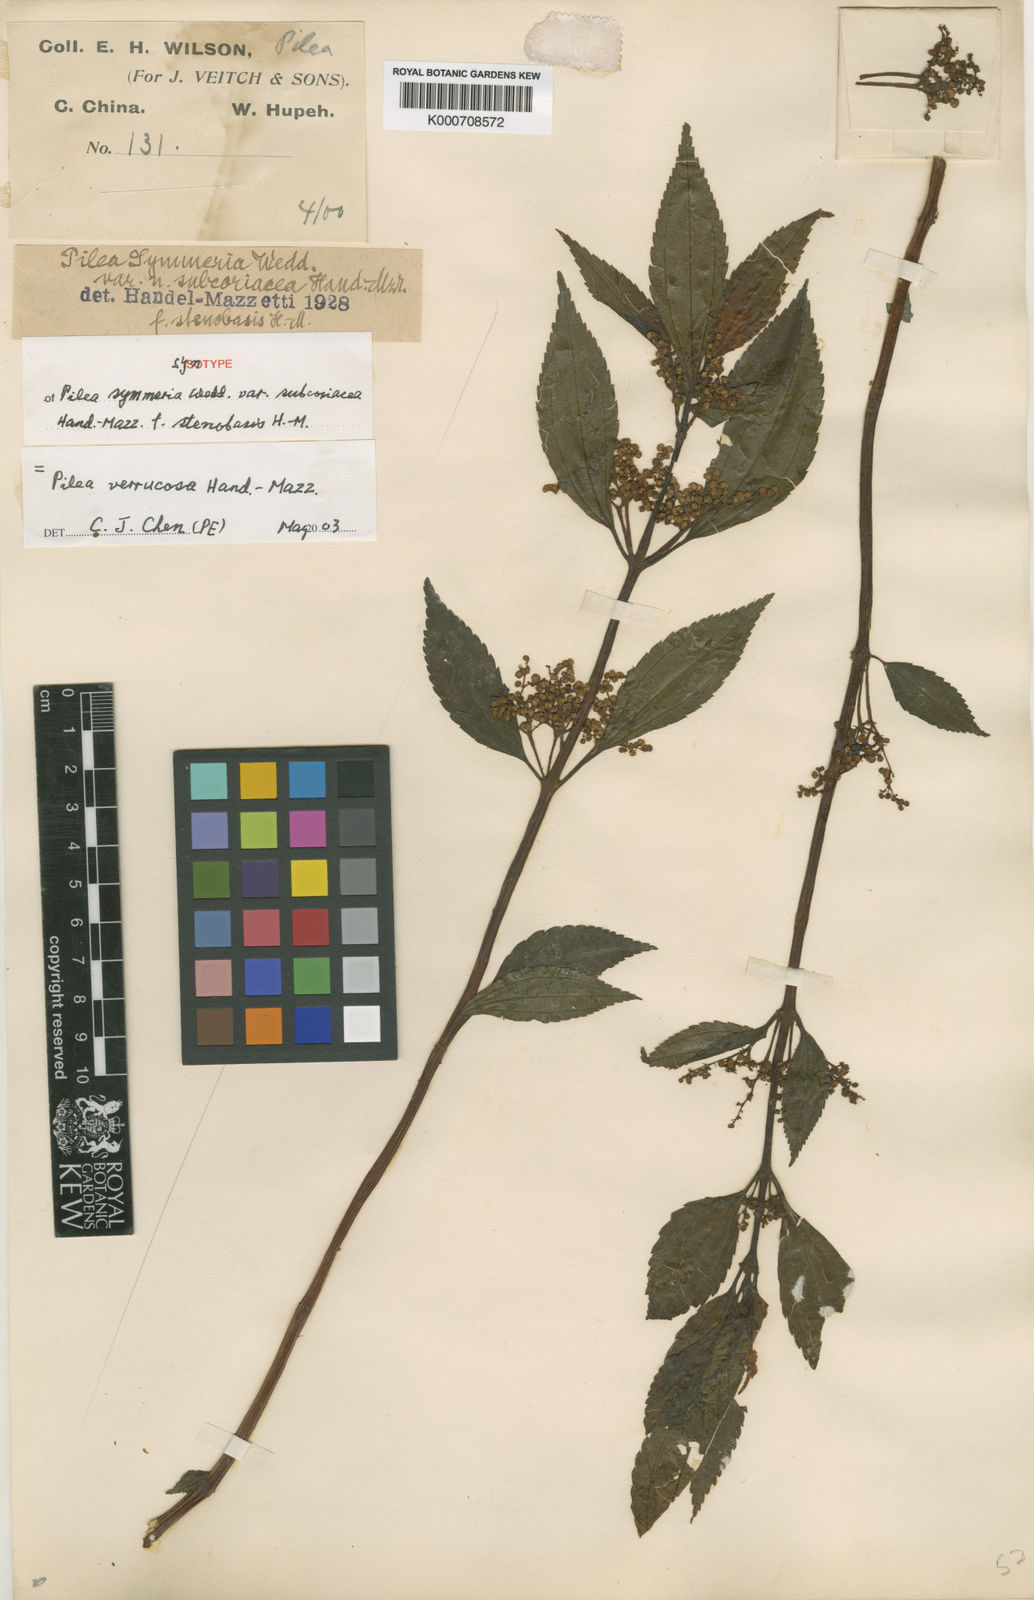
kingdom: Plantae
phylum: Tracheophyta
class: Magnoliopsida
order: Rosales
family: Urticaceae
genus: Pilea
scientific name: Pilea gracilis
